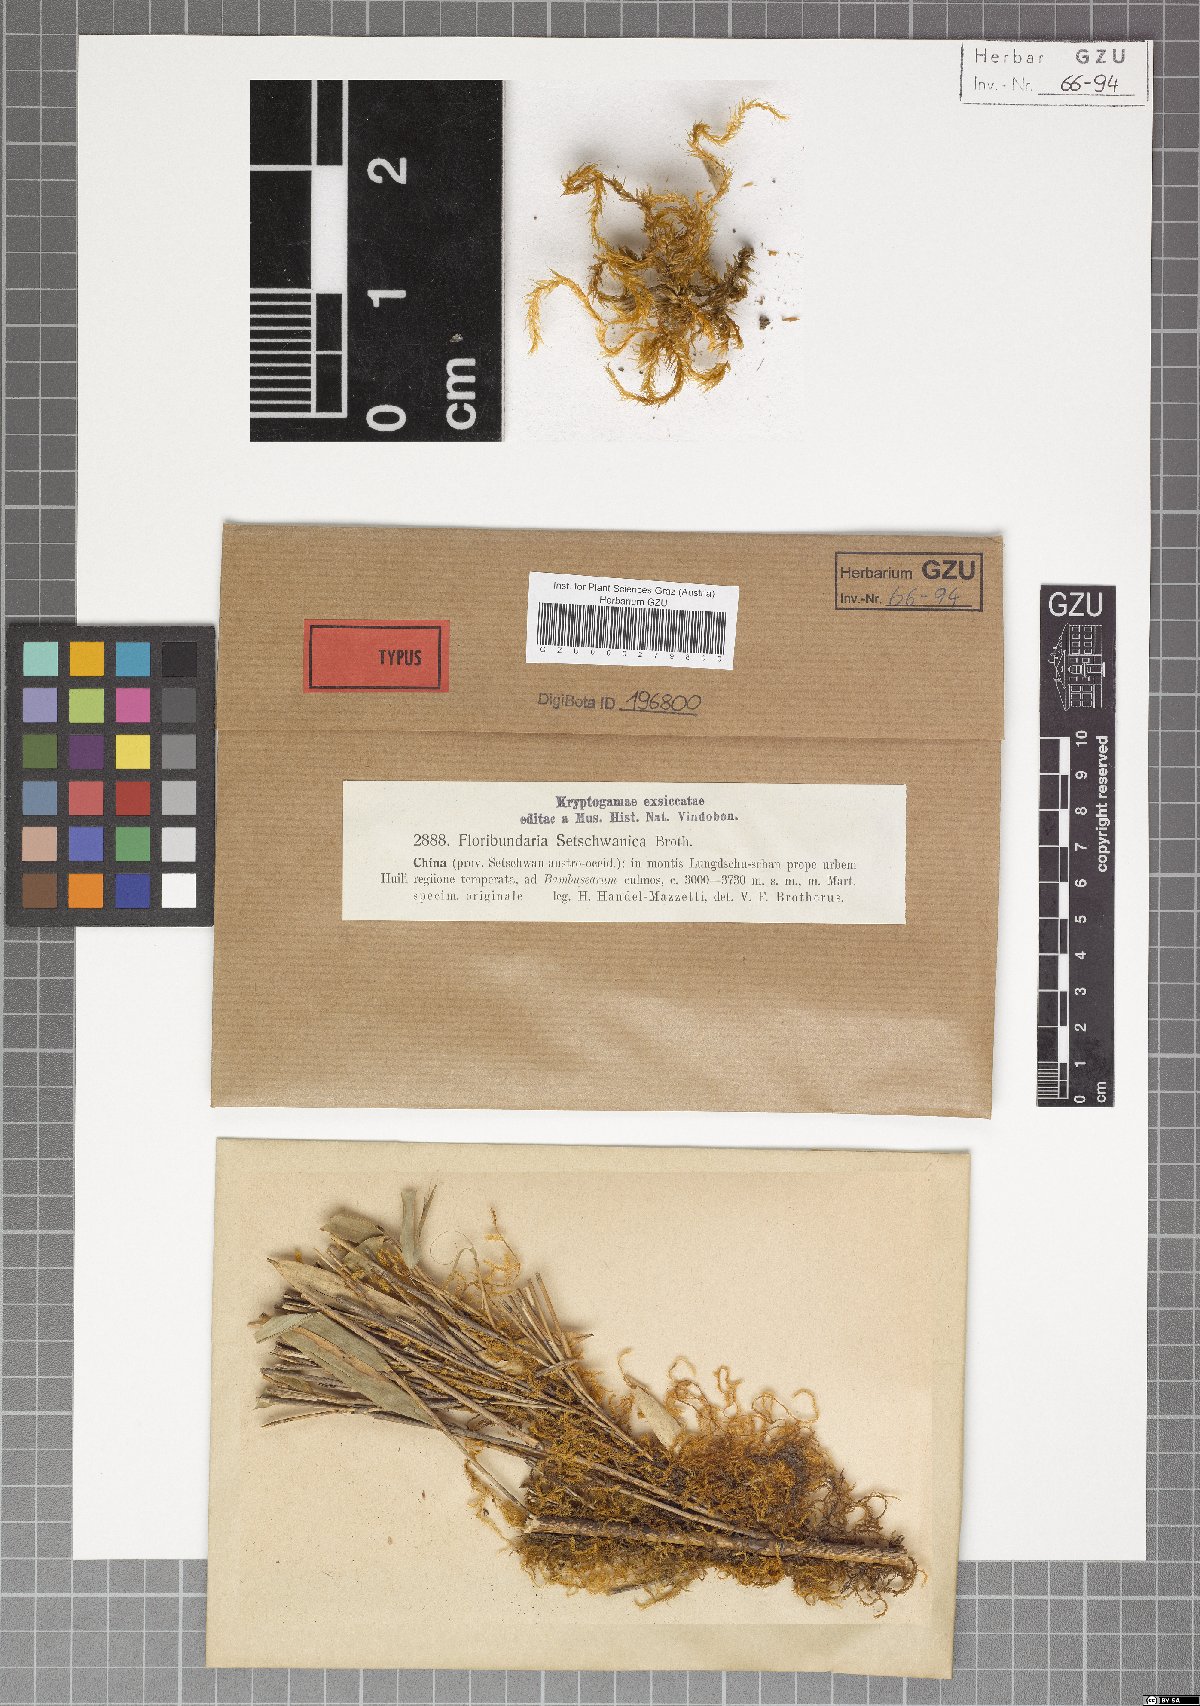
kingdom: Plantae
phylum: Bryophyta
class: Bryopsida
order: Hypnales
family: Meteoriaceae
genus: Floribundaria
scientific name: Floribundaria setschwanica
